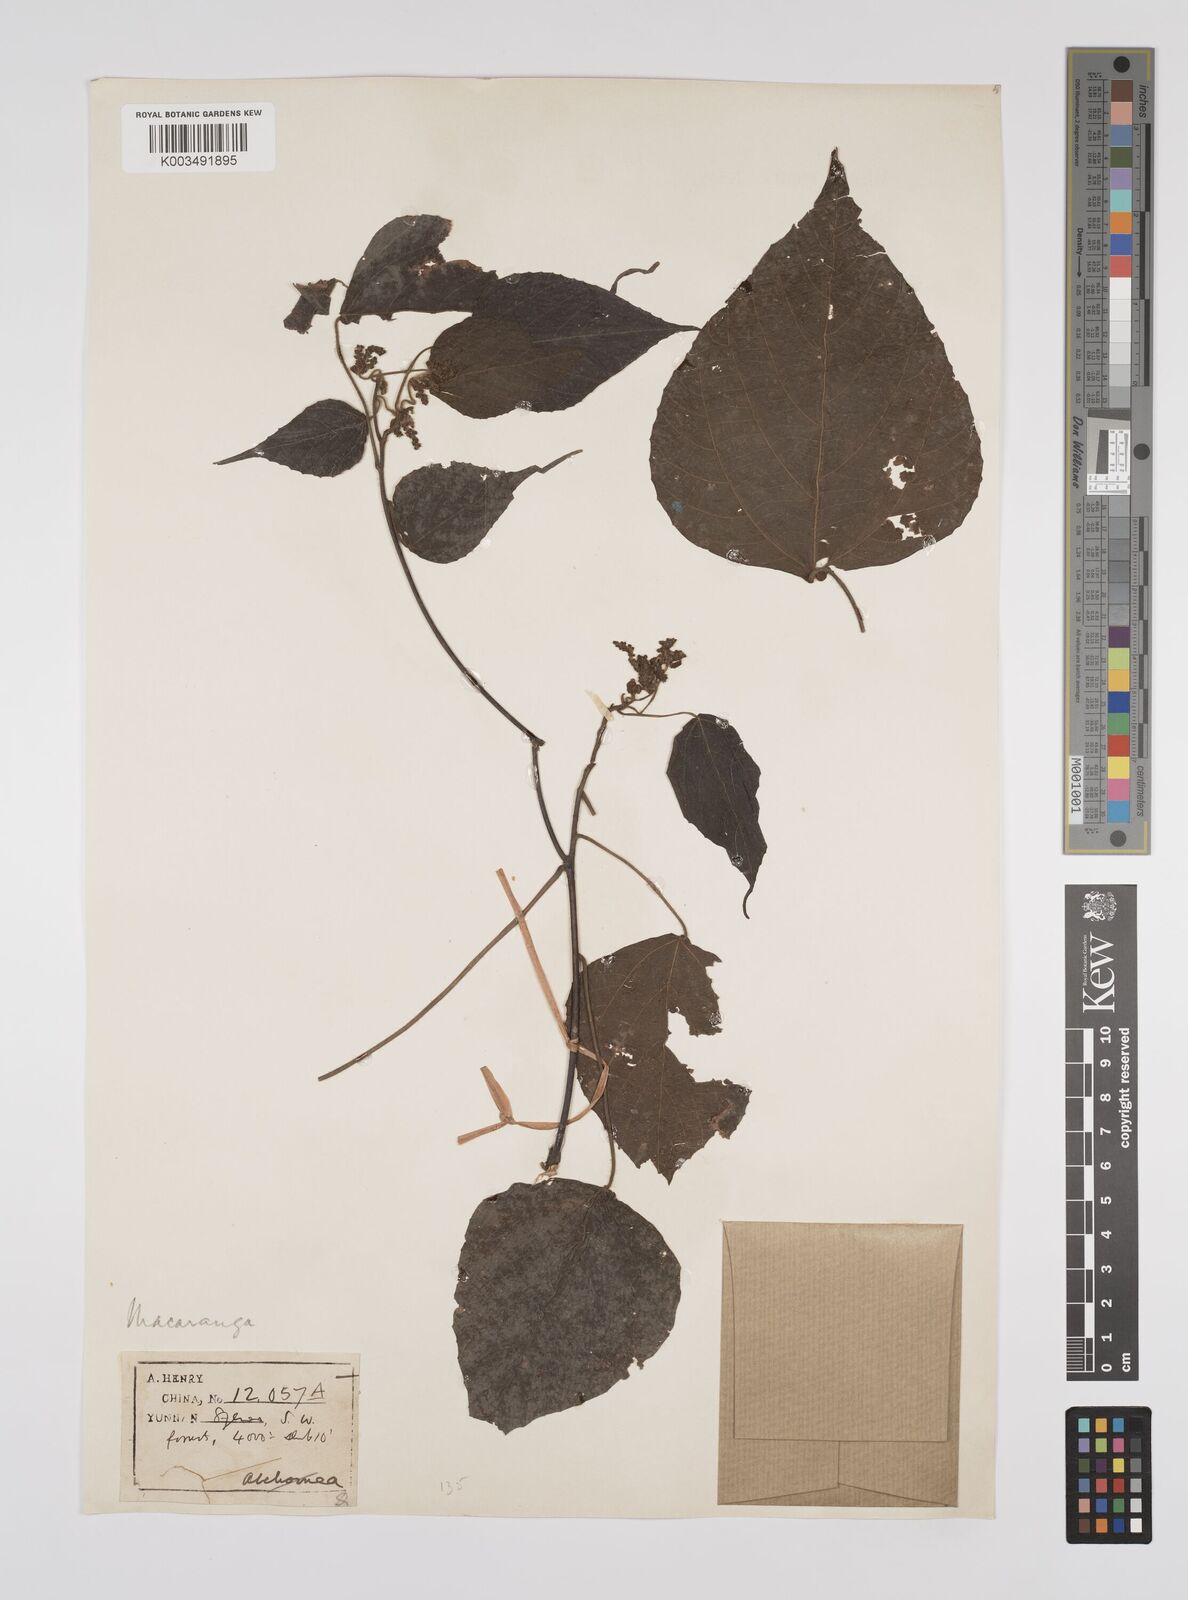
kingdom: Plantae
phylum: Tracheophyta
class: Magnoliopsida
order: Malpighiales
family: Euphorbiaceae
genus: Macaranga
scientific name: Macaranga kurzii
